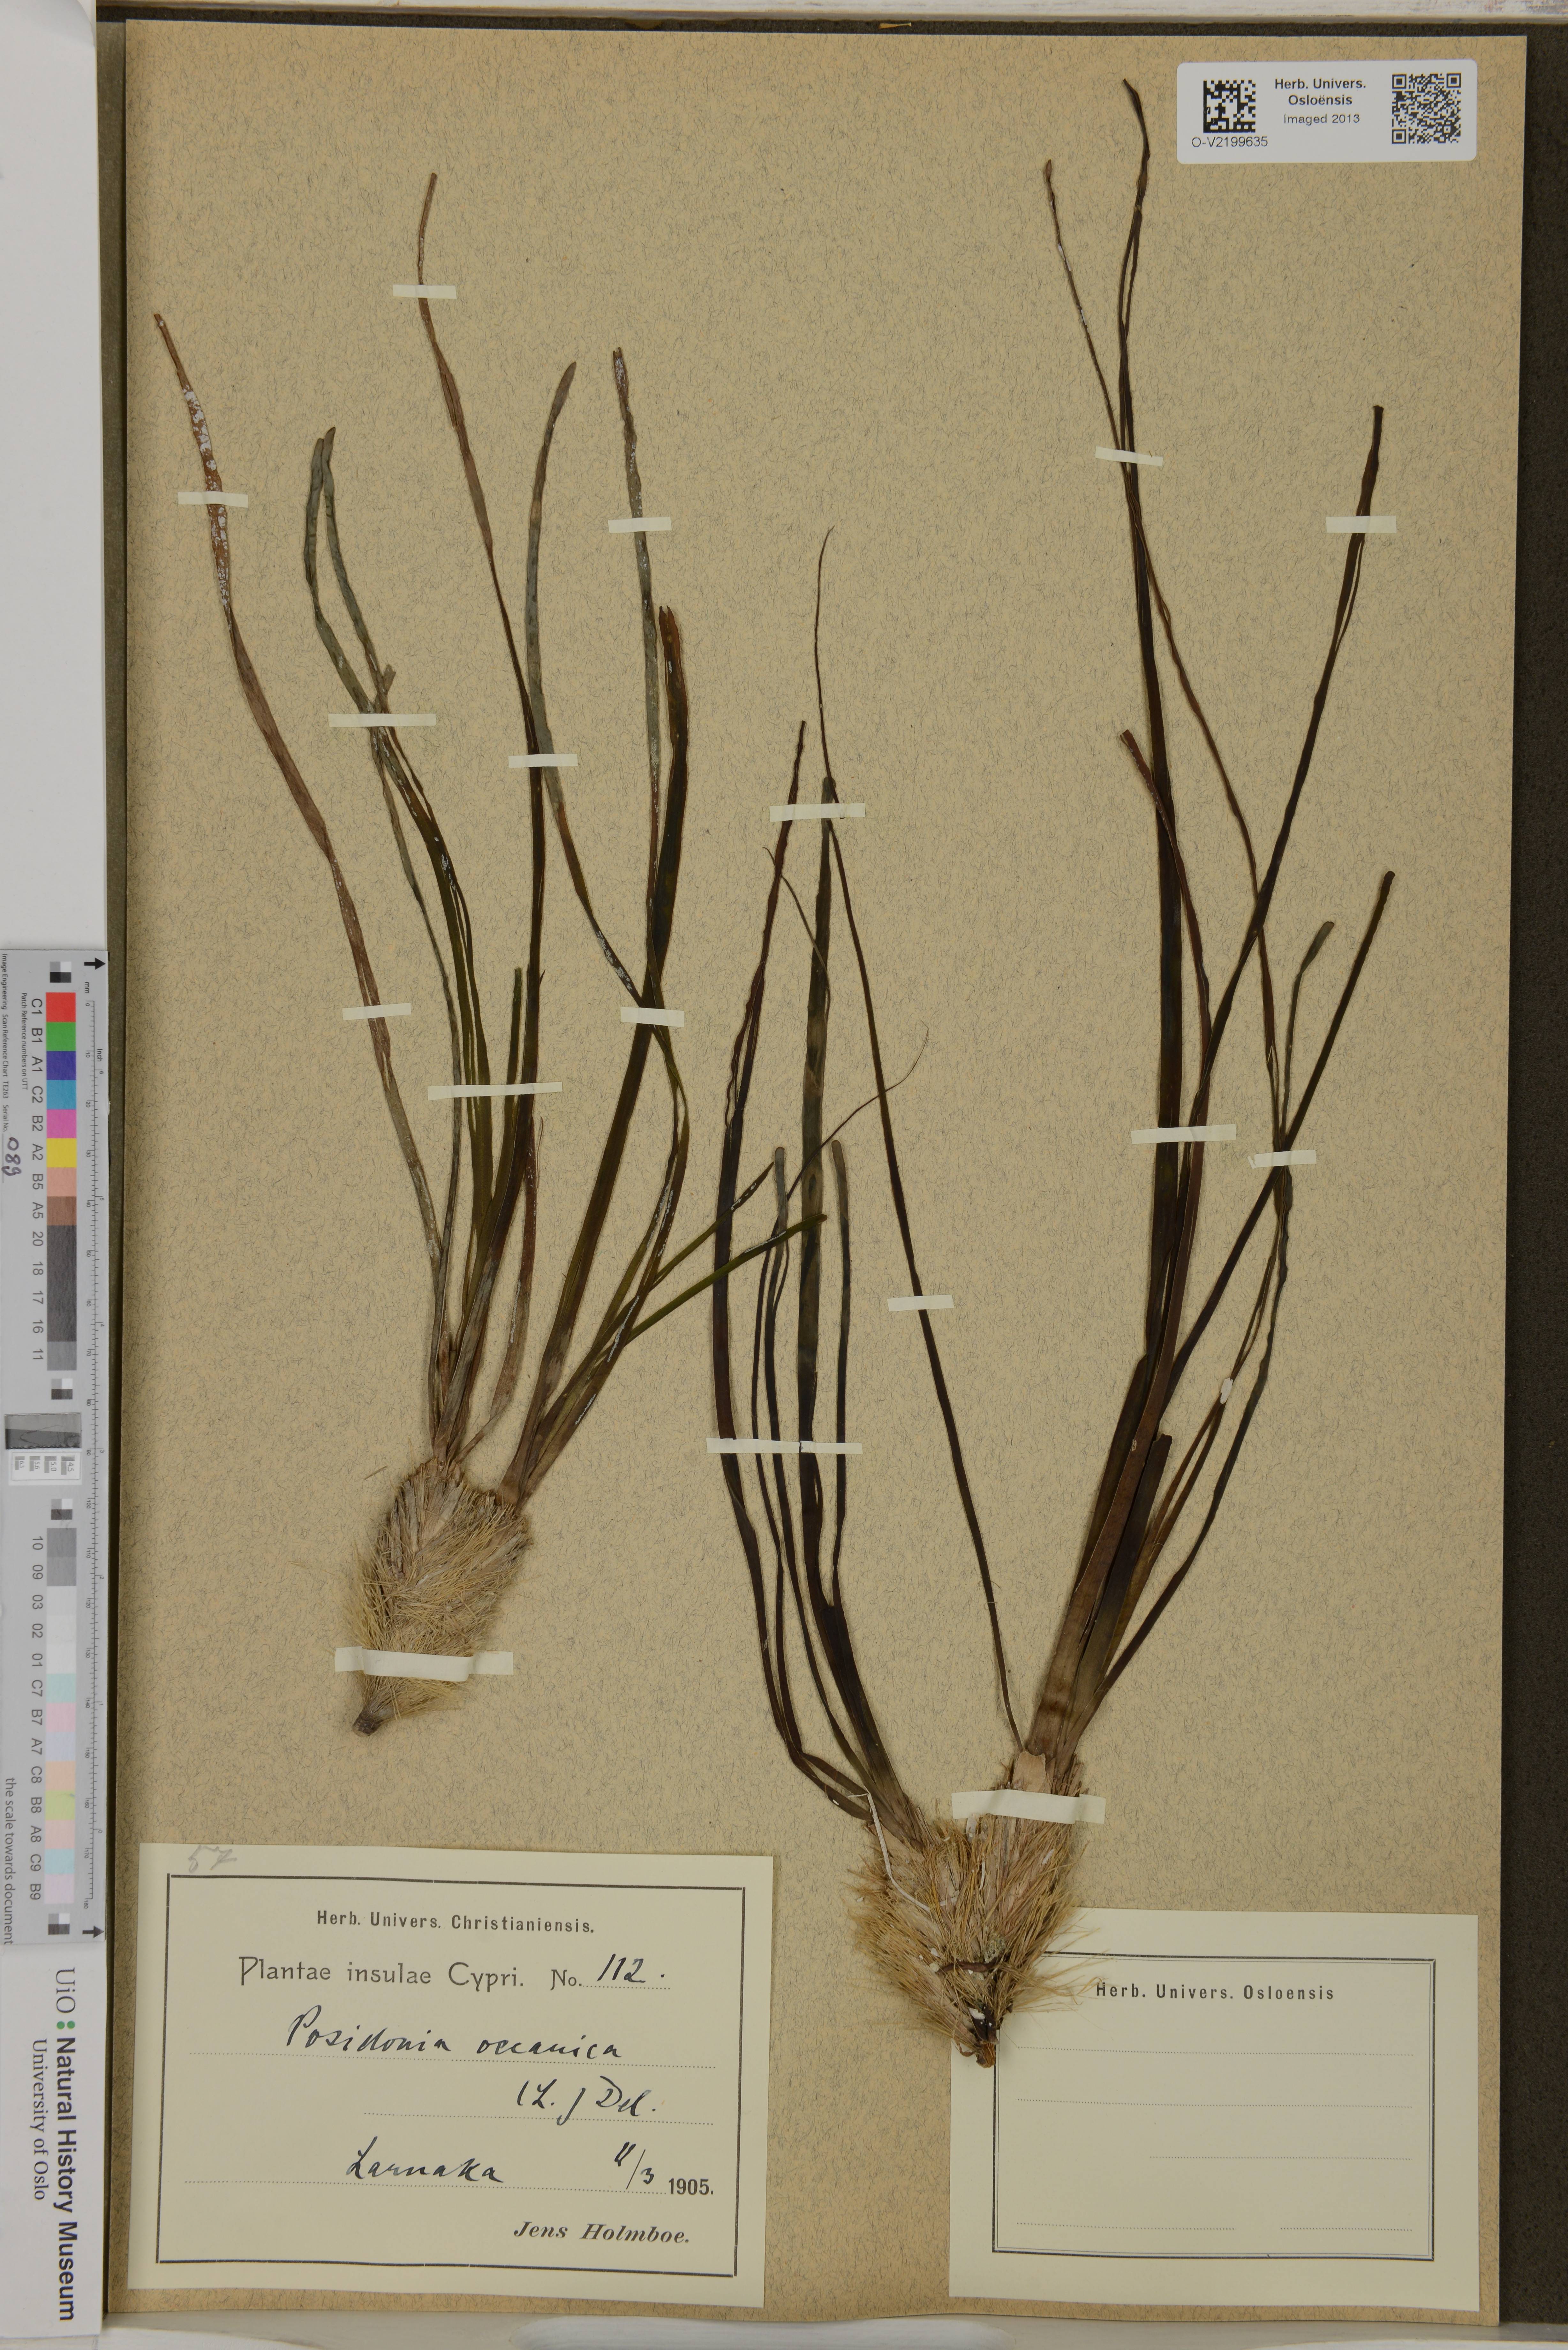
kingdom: Plantae
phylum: Tracheophyta
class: Liliopsida
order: Alismatales
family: Posidoniaceae
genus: Posidonia
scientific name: Posidonia oceanica
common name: Mediterranean tapeweed
